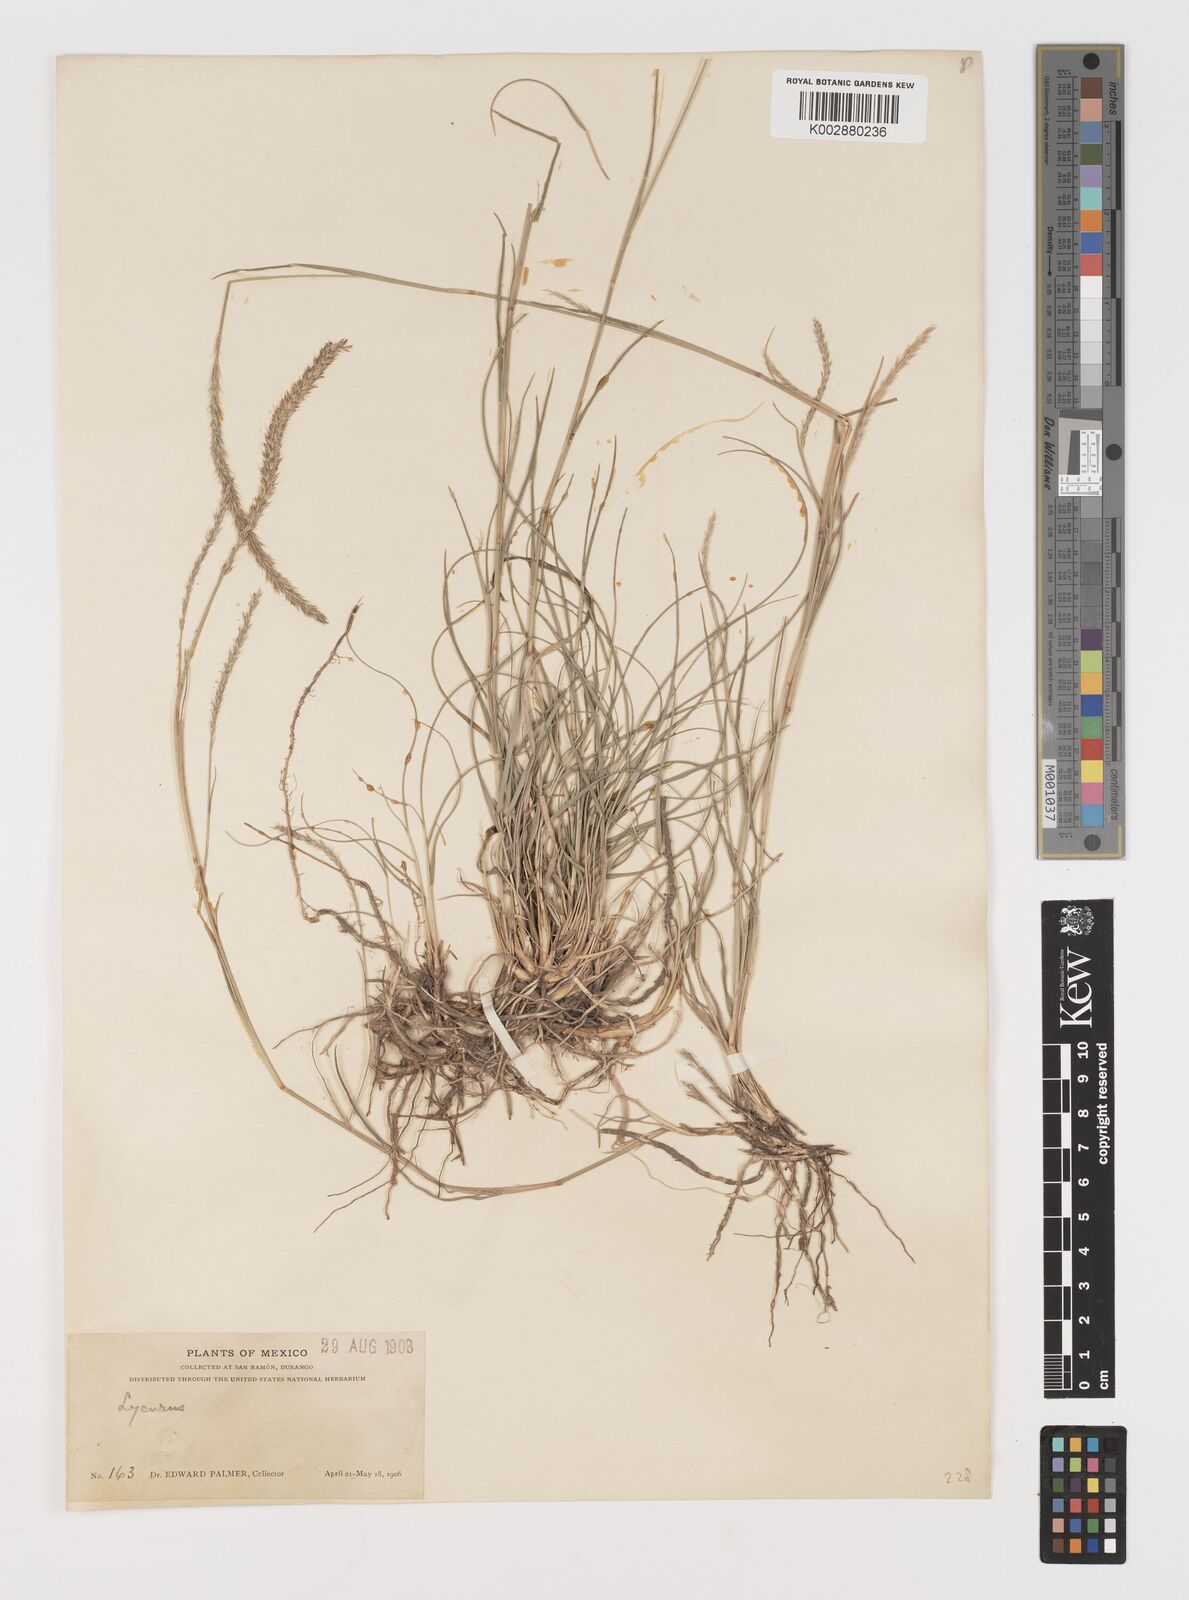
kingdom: Plantae
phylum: Tracheophyta
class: Liliopsida
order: Poales
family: Poaceae
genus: Muhlenbergia
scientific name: Muhlenbergia phleoides
